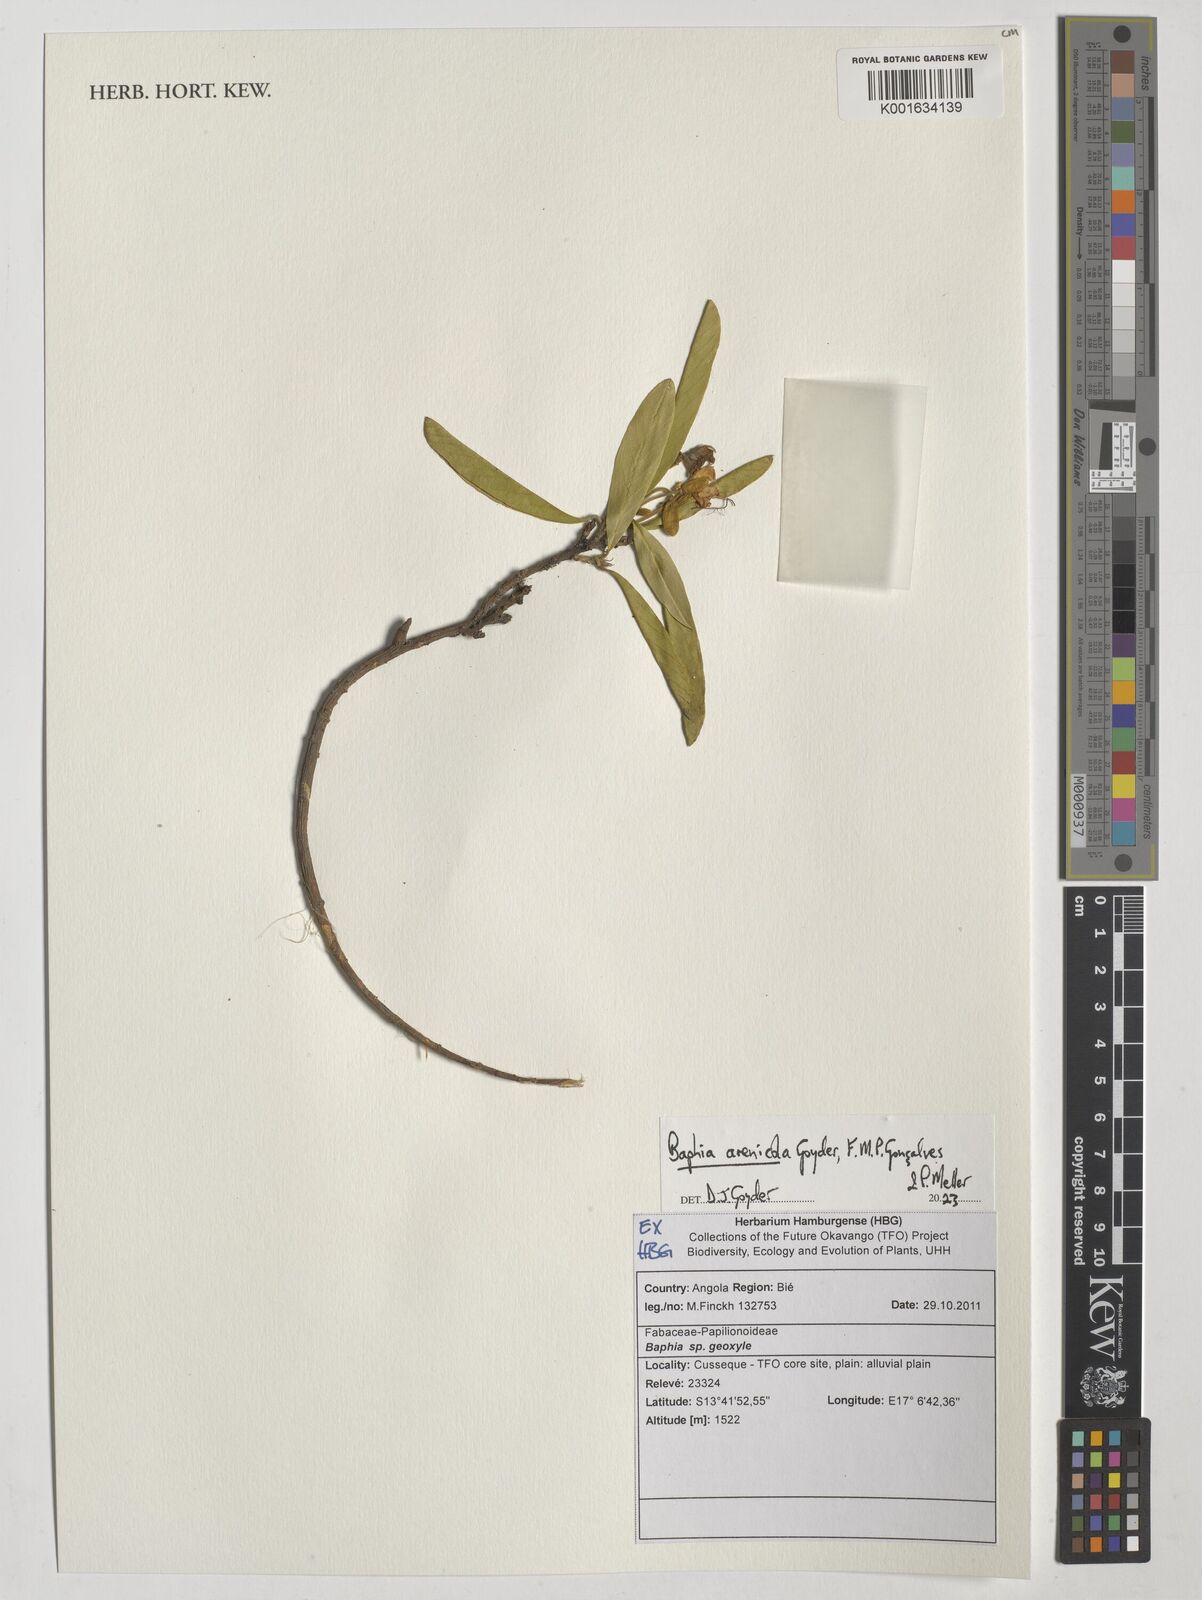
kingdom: Plantae
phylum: Tracheophyta
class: Magnoliopsida
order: Fabales
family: Fabaceae
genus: Baphia
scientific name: Baphia
